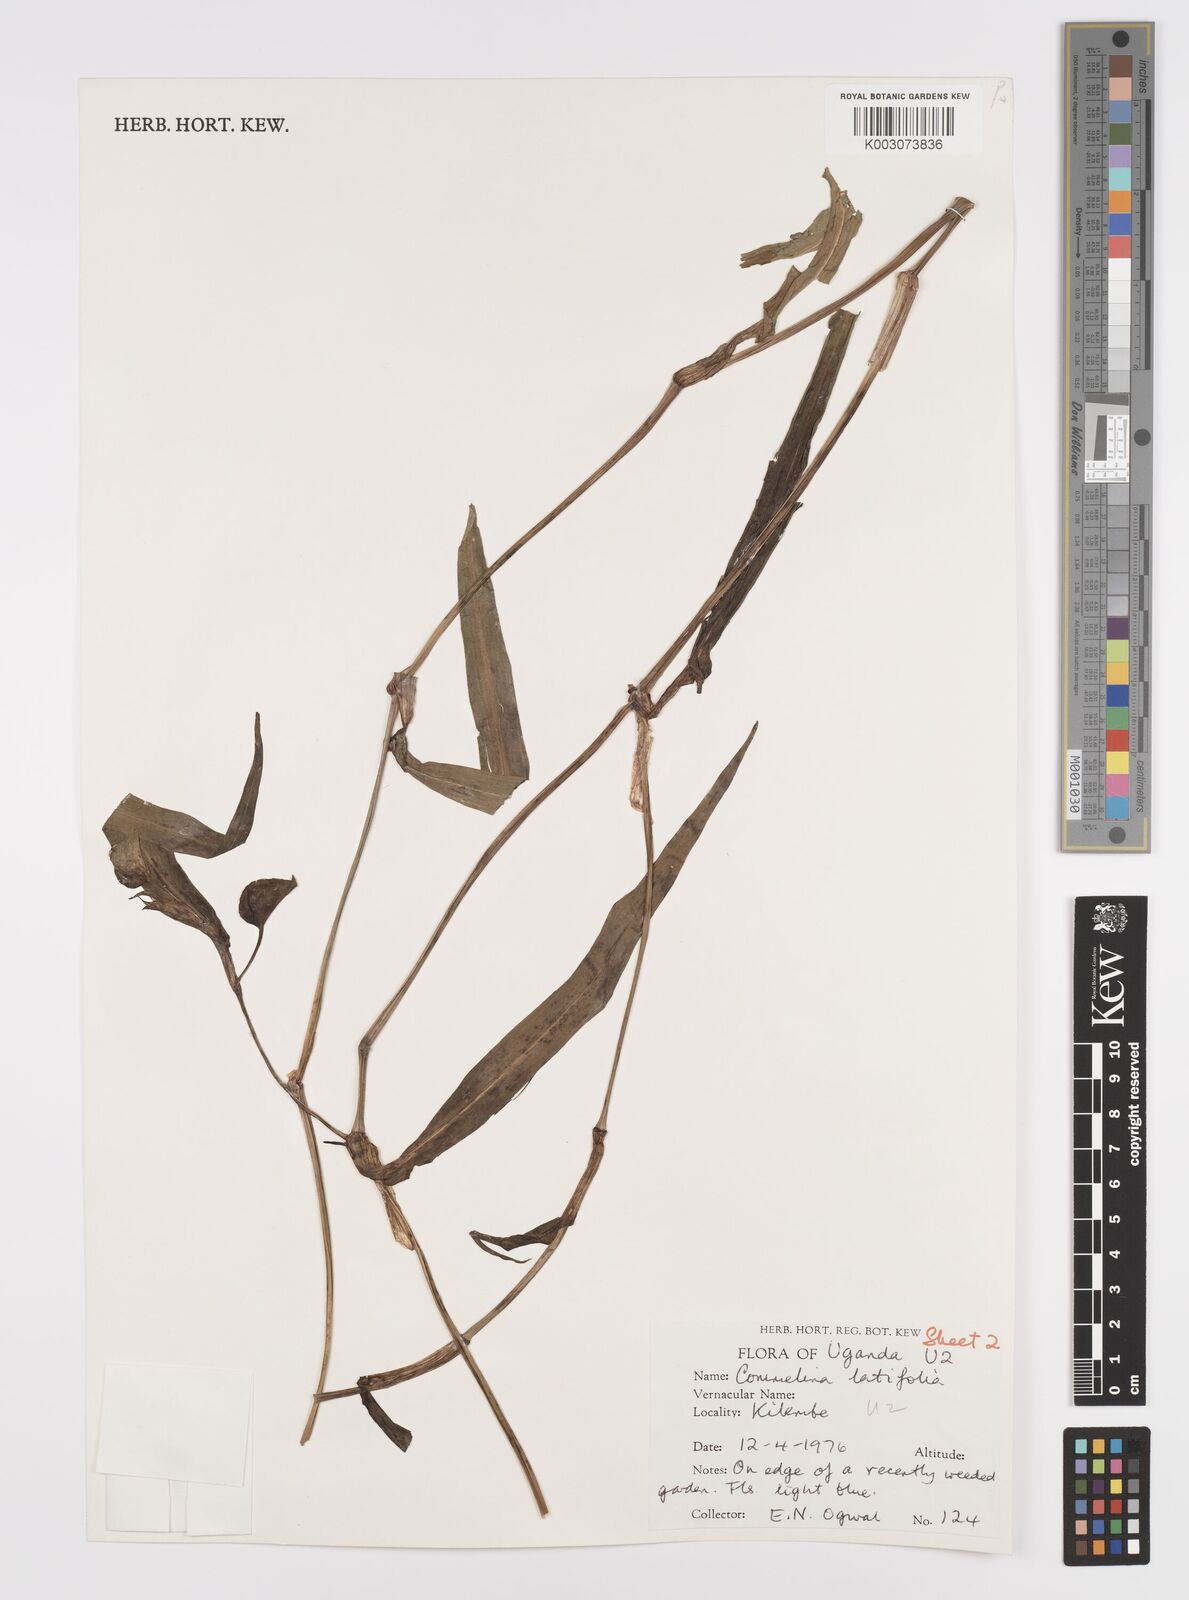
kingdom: Plantae
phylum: Tracheophyta
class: Liliopsida
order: Commelinales
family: Commelinaceae
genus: Commelina
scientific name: Commelina latifolia
